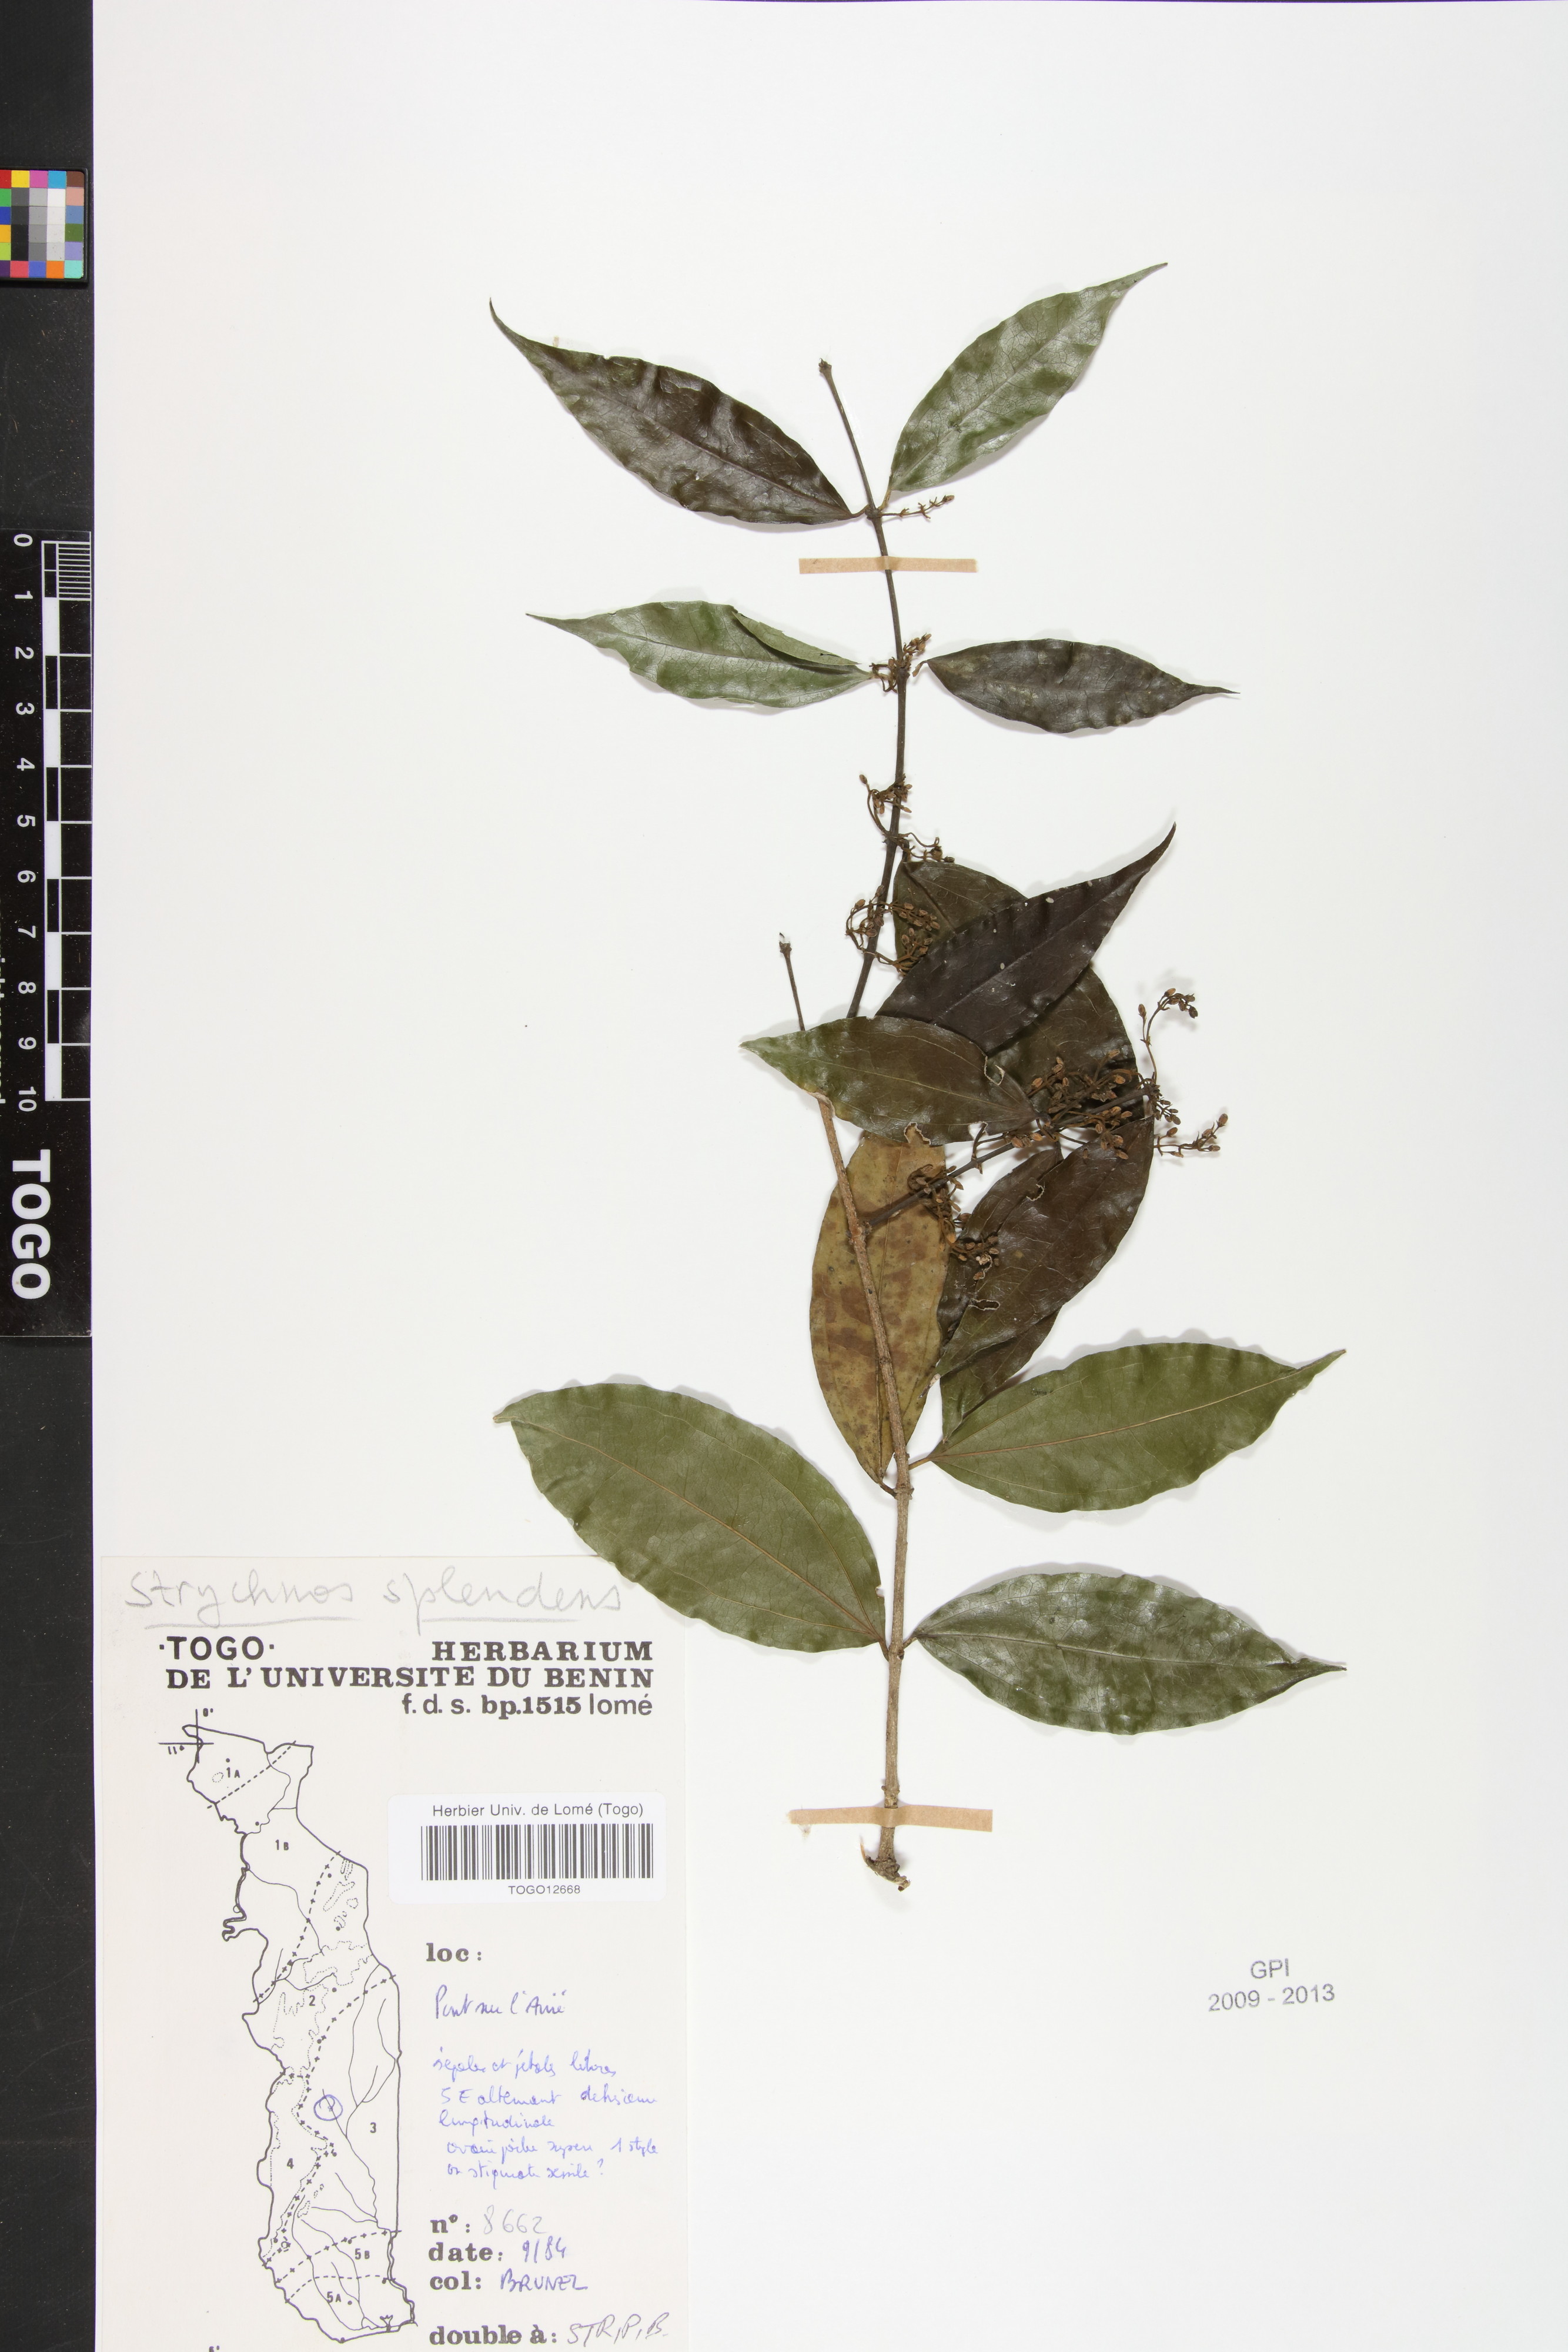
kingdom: Plantae
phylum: Tracheophyta
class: Magnoliopsida
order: Gentianales
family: Loganiaceae
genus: Strychnos
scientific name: Strychnos spinosa
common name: Natal orange
